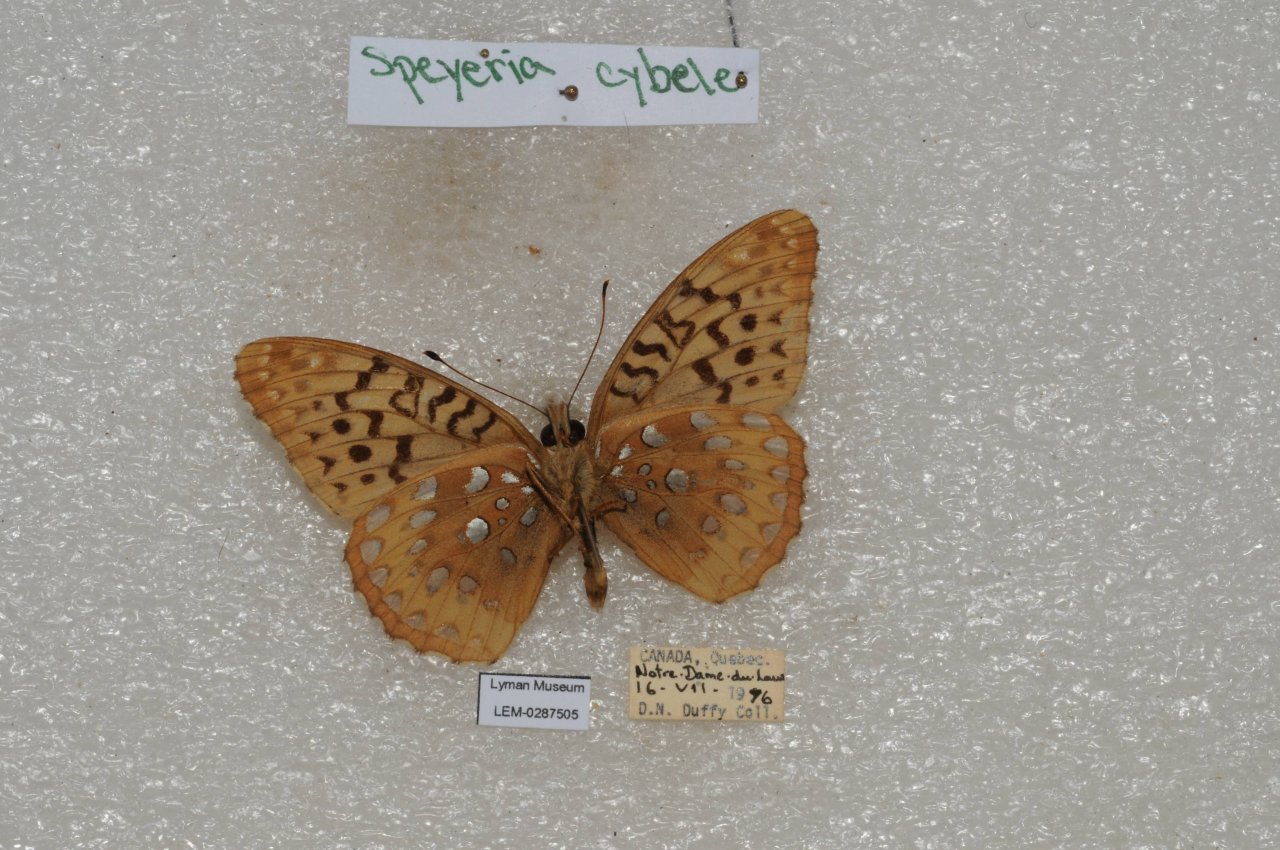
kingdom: Animalia
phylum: Arthropoda
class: Insecta
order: Lepidoptera
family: Nymphalidae
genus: Speyeria
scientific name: Speyeria cybele
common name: Great Spangled Fritillary
